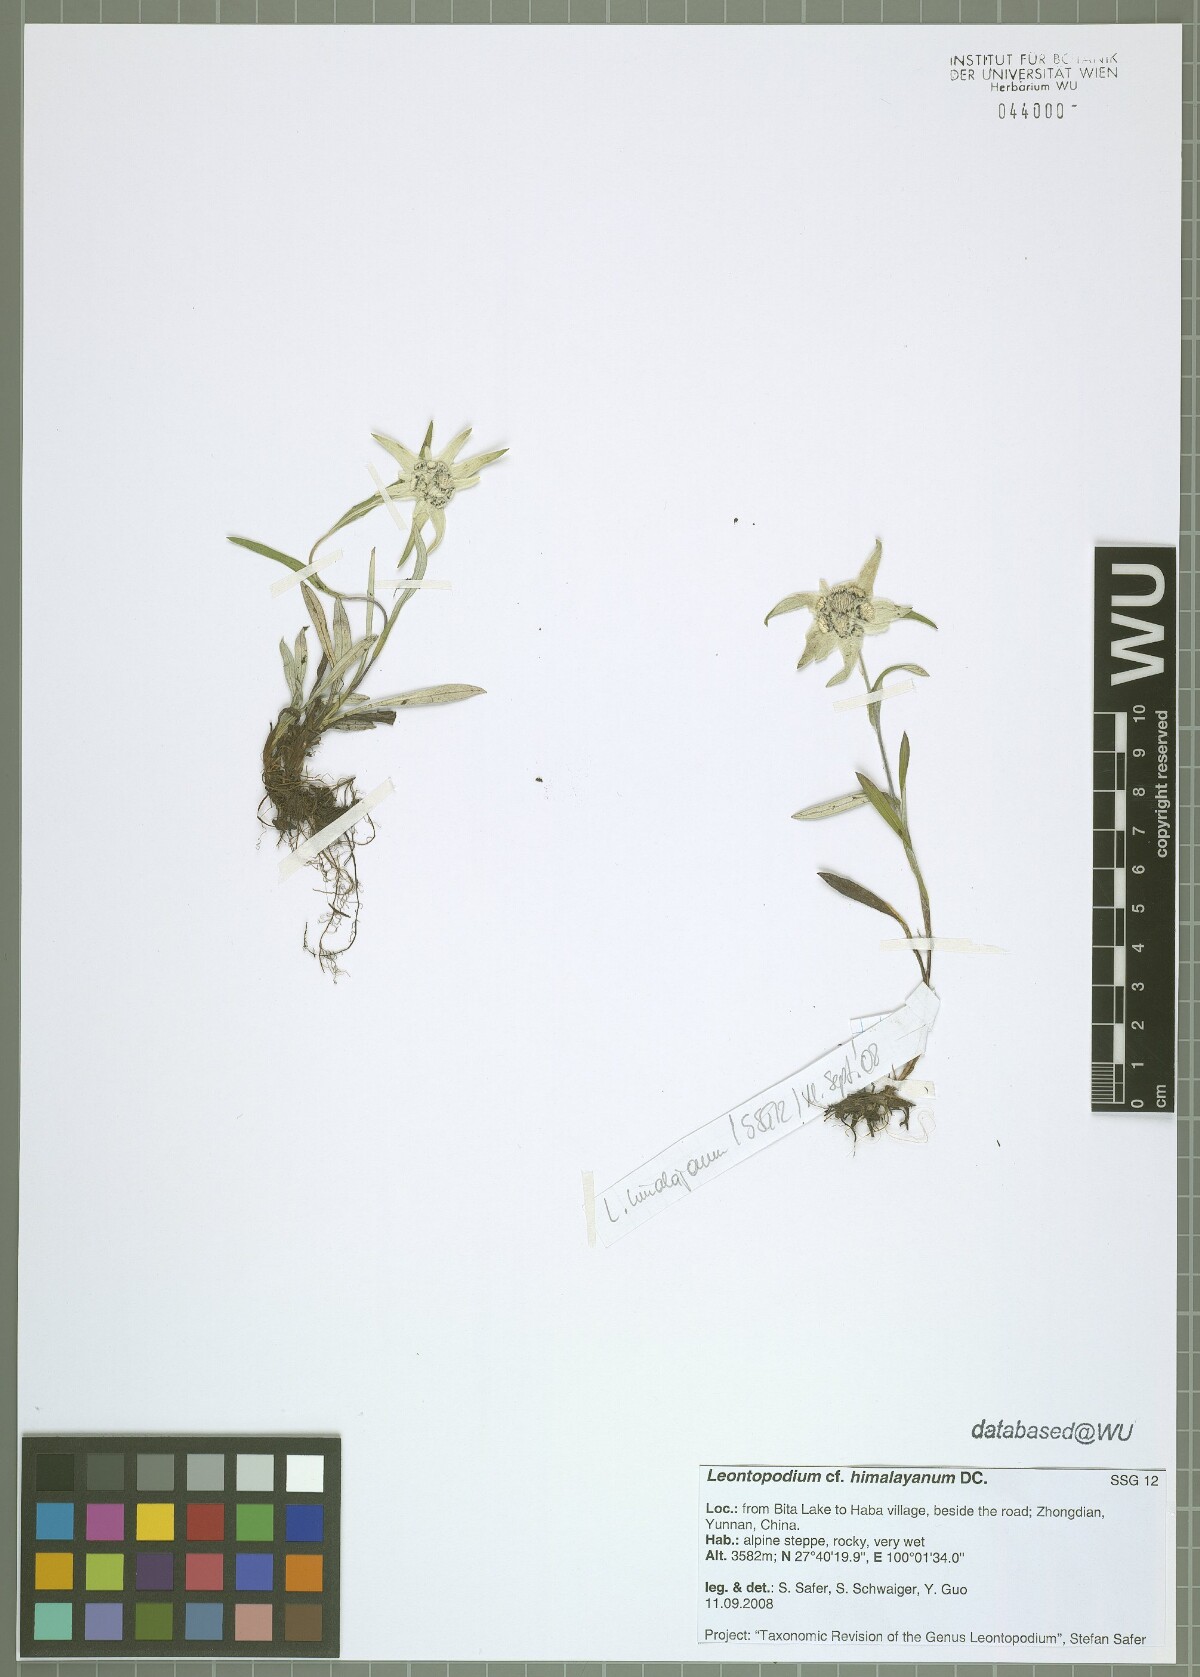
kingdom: Plantae
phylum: Tracheophyta
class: Magnoliopsida
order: Asterales
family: Asteraceae
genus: Leontopodium
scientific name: Leontopodium himalayanum
